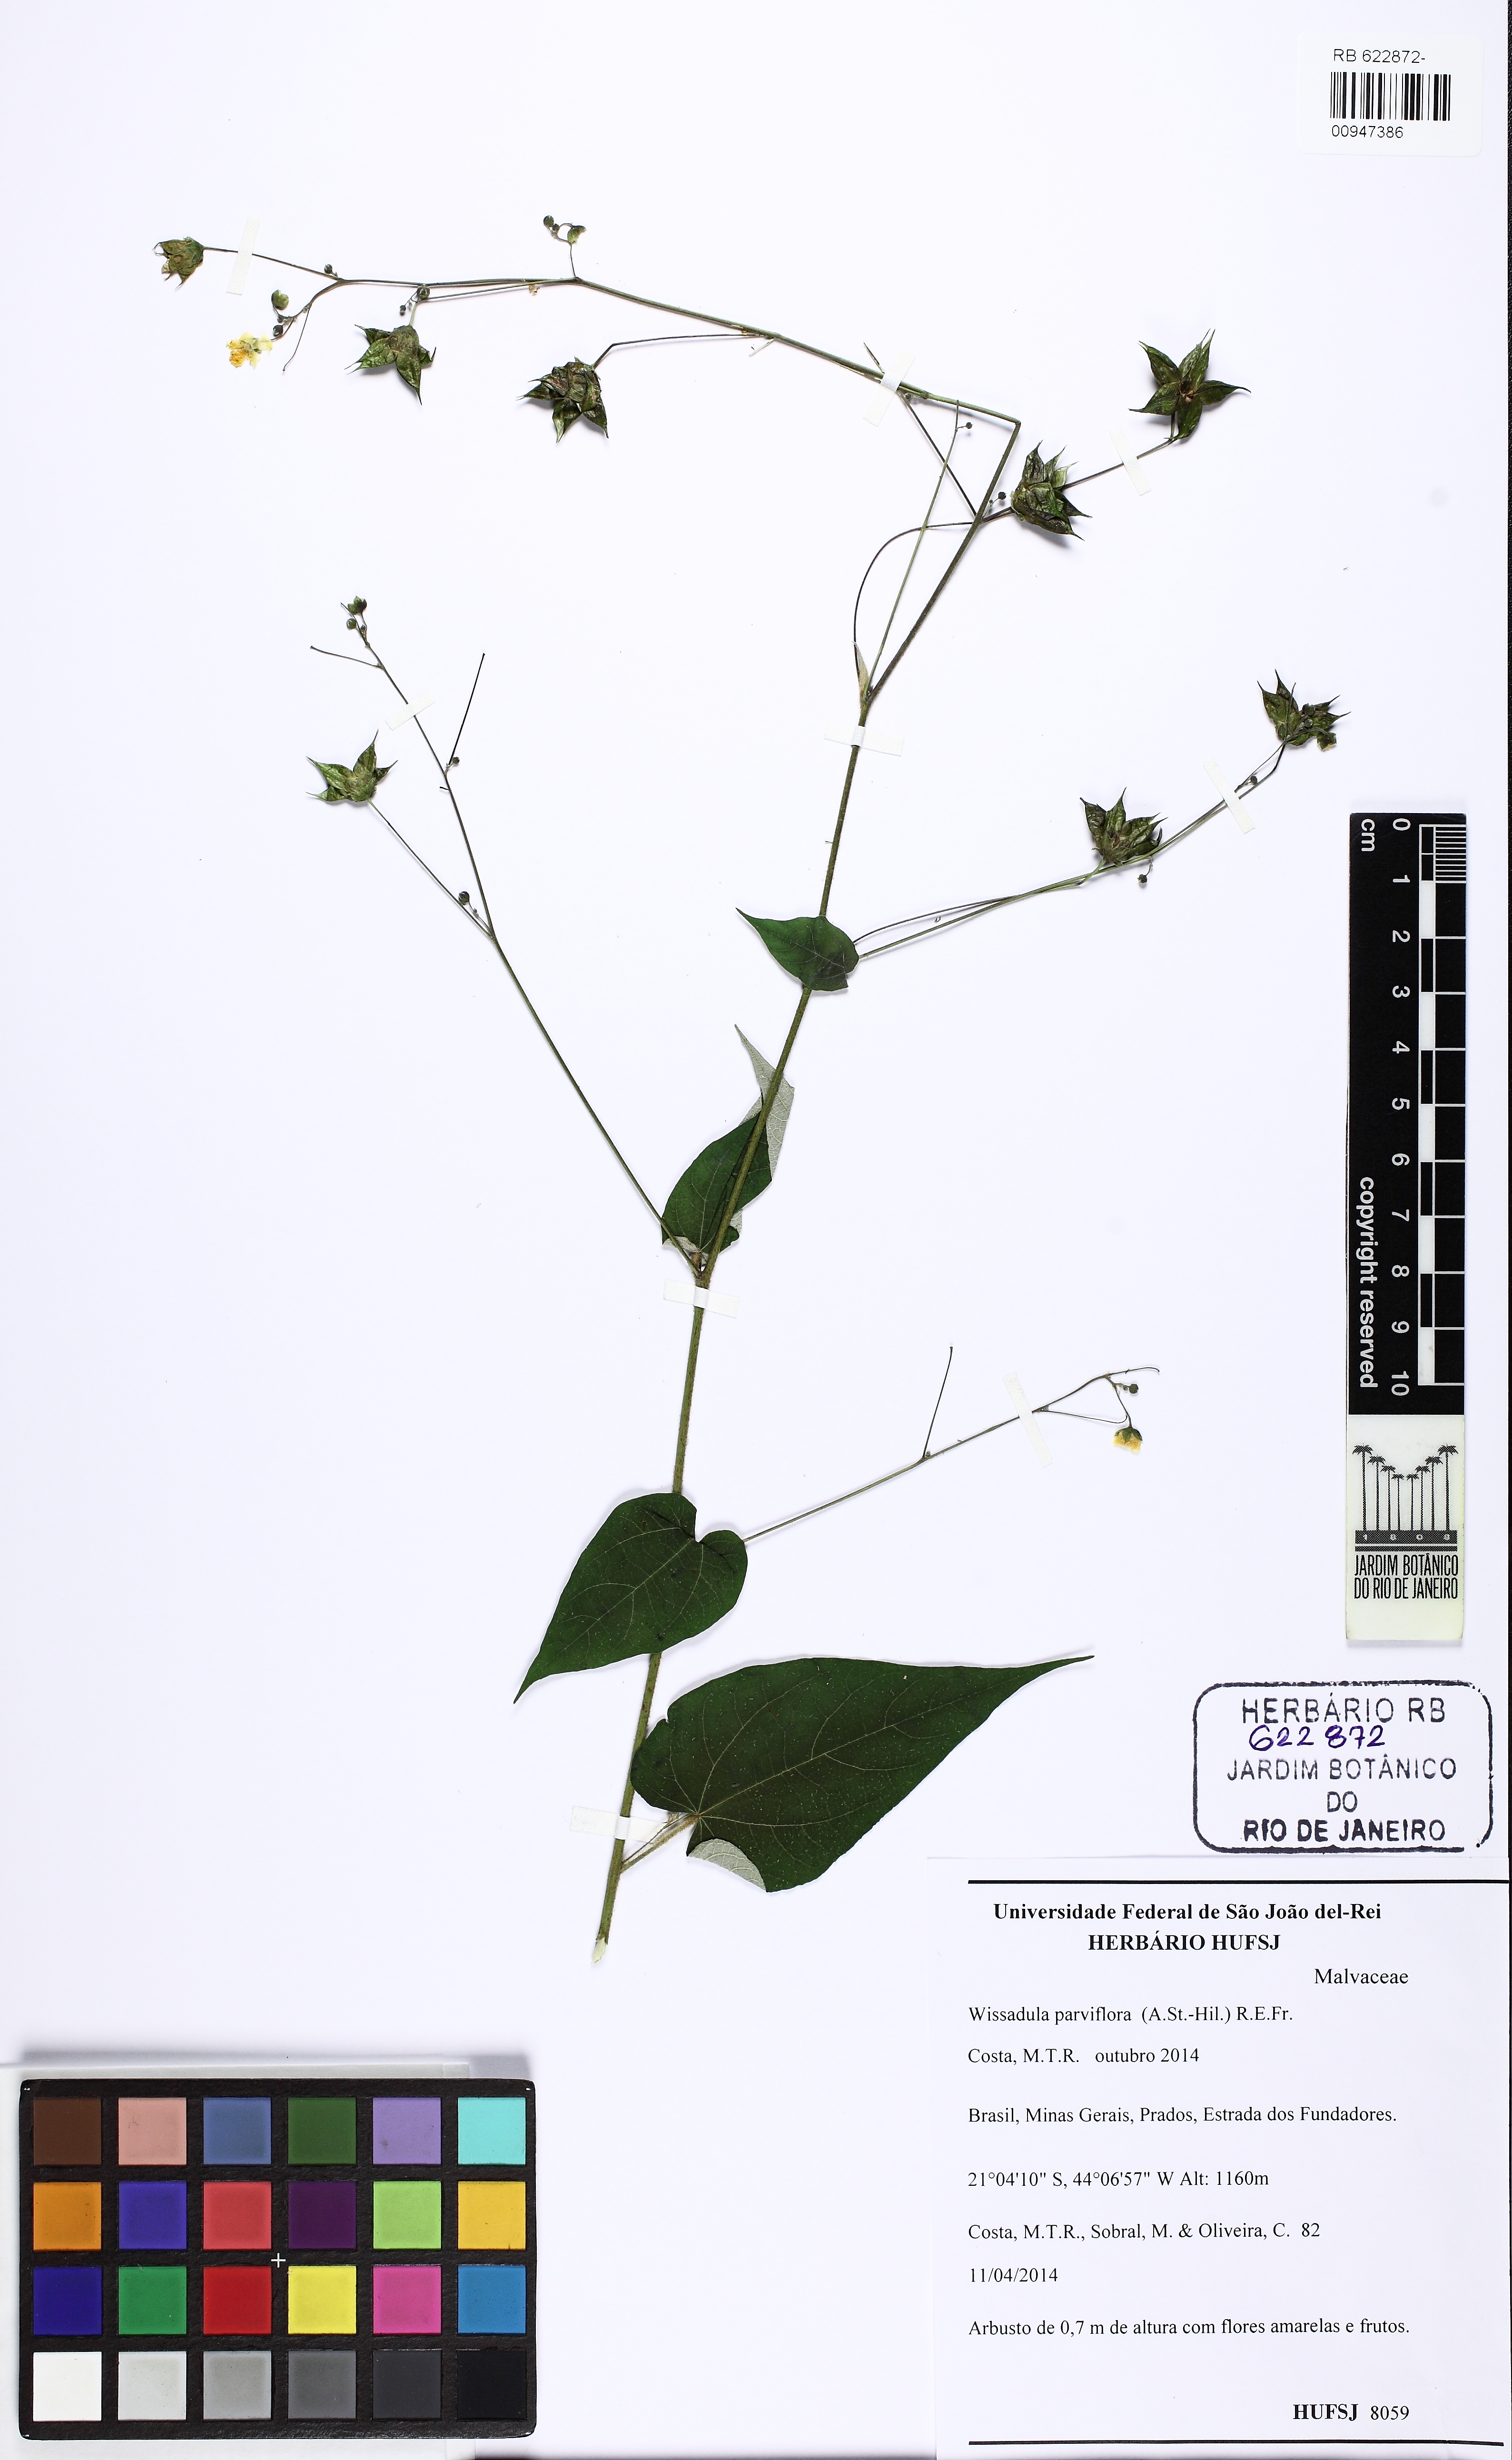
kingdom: Plantae
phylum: Tracheophyta
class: Magnoliopsida
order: Malvales
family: Malvaceae
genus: Wissadula
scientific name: Wissadula parviflora
